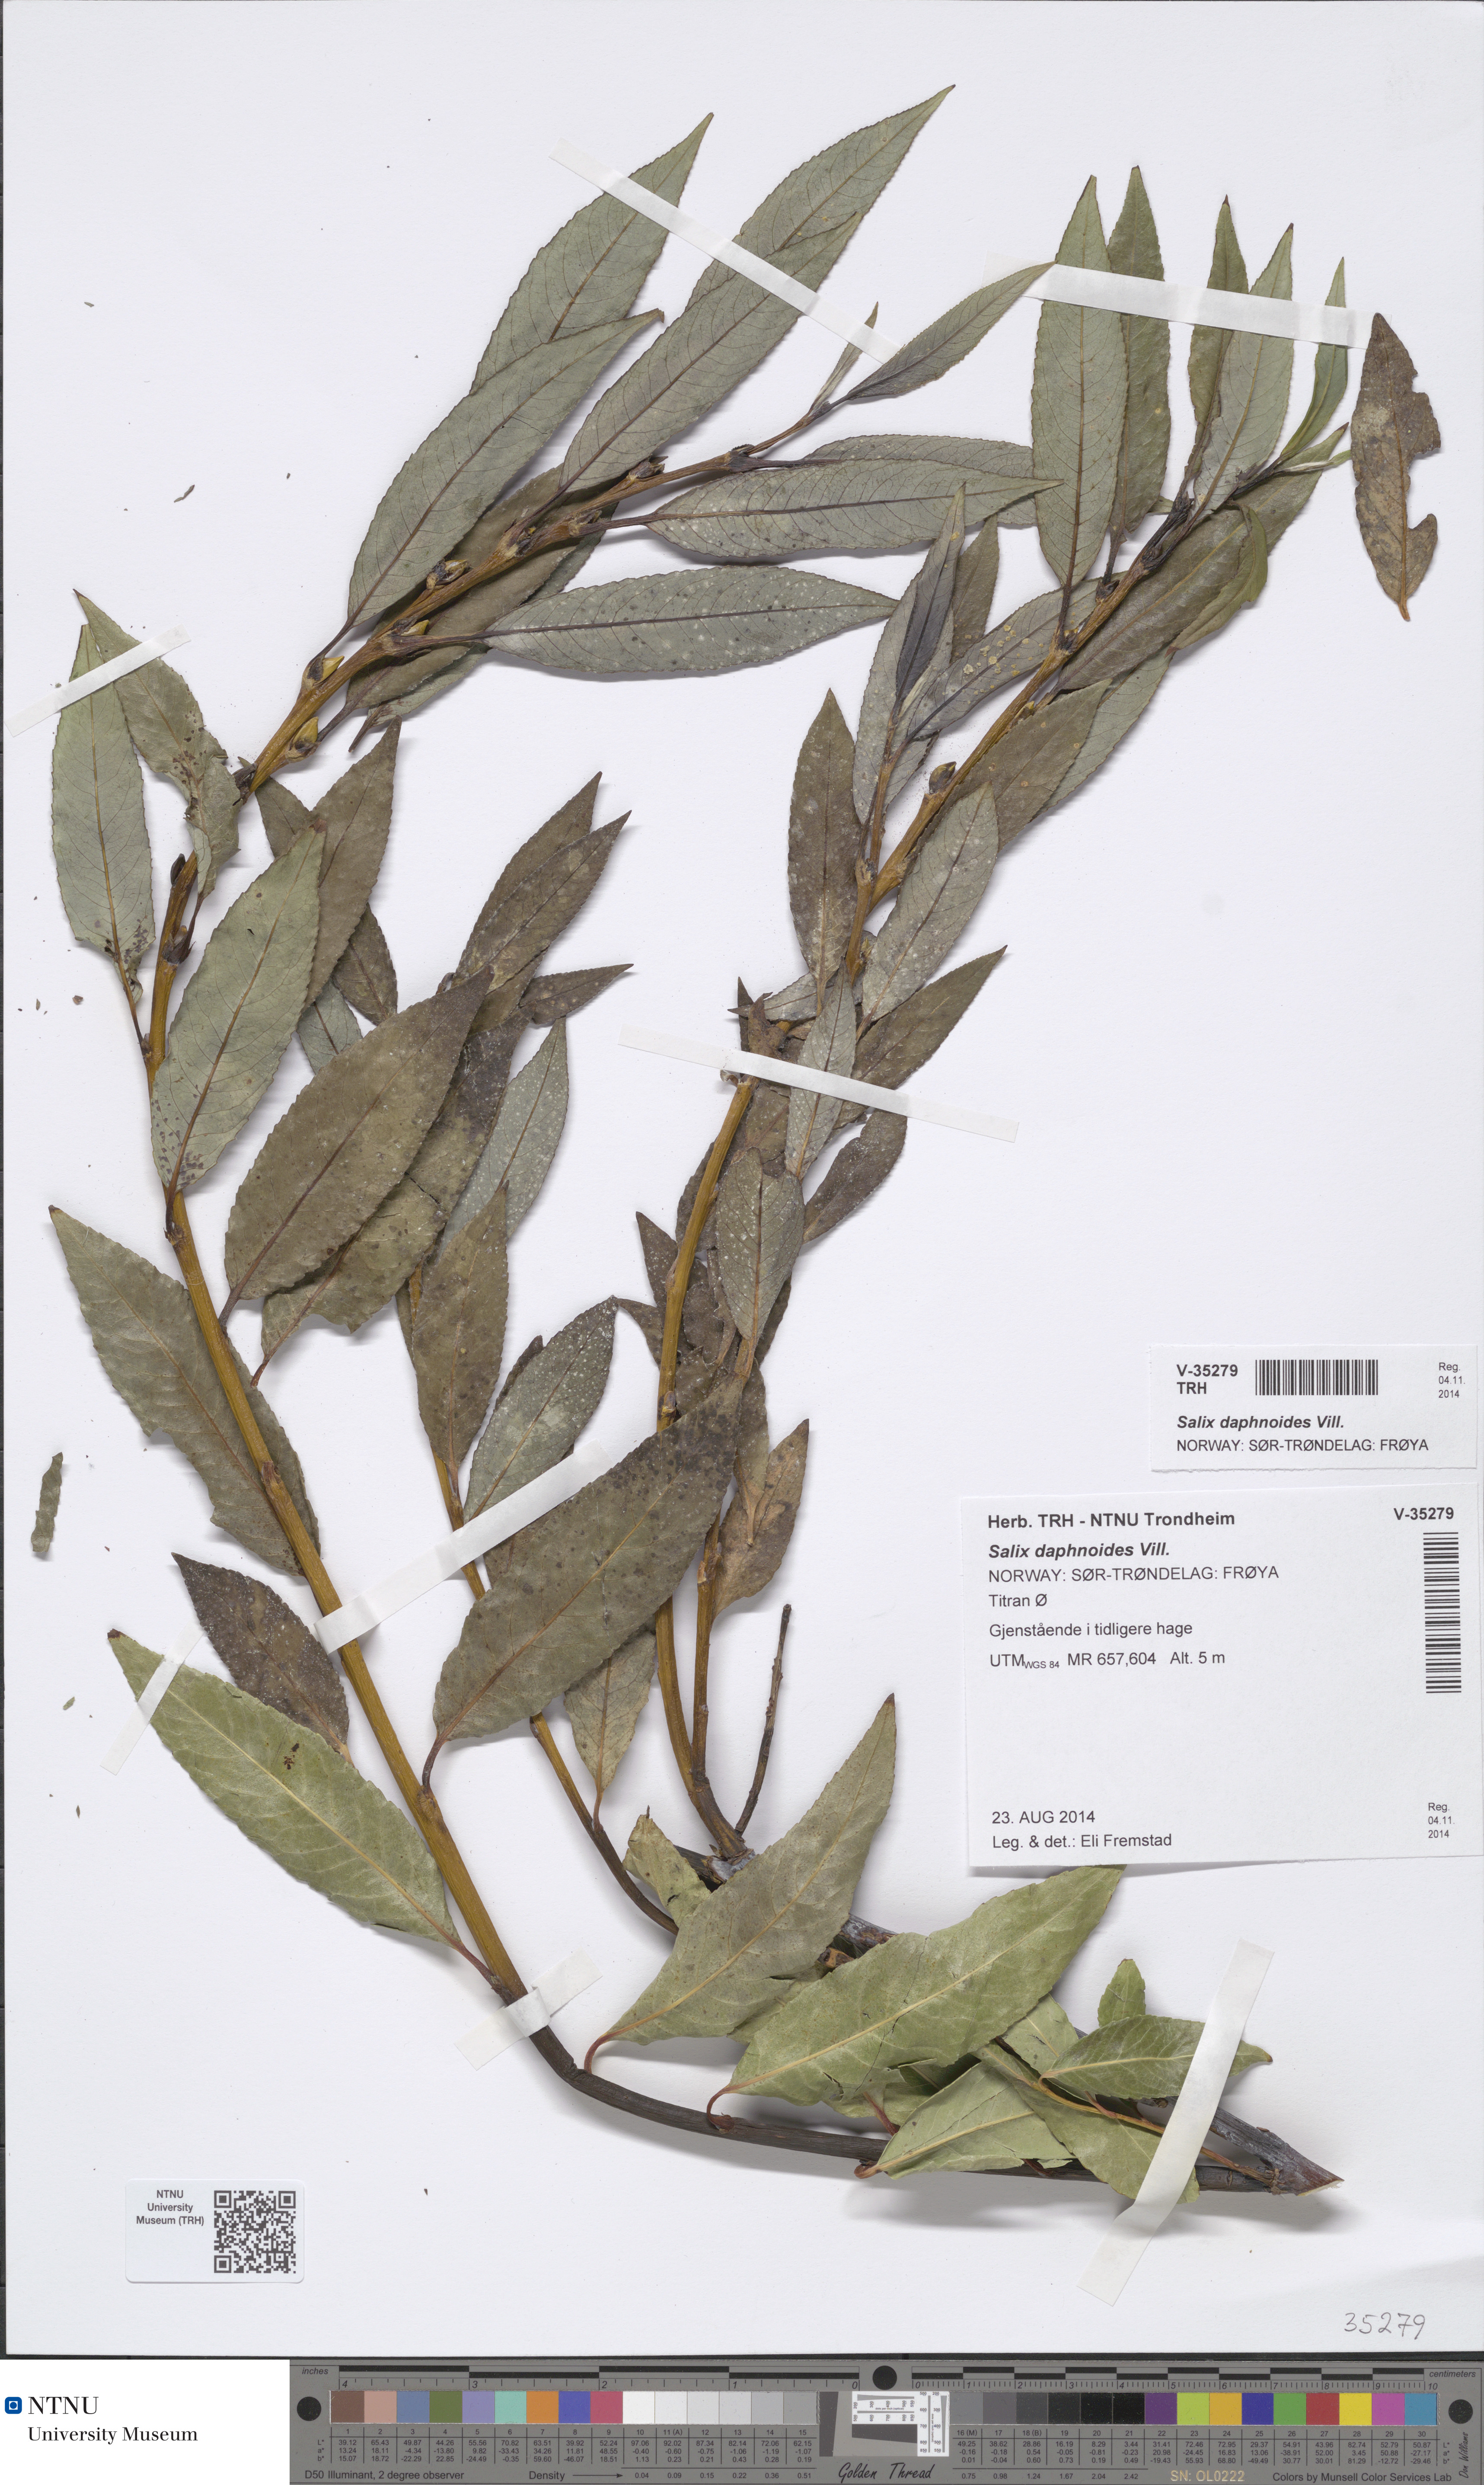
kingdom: Plantae
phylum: Tracheophyta
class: Magnoliopsida
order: Malpighiales
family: Salicaceae
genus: Salix
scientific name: Salix daphnoides
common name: European violet-willow
